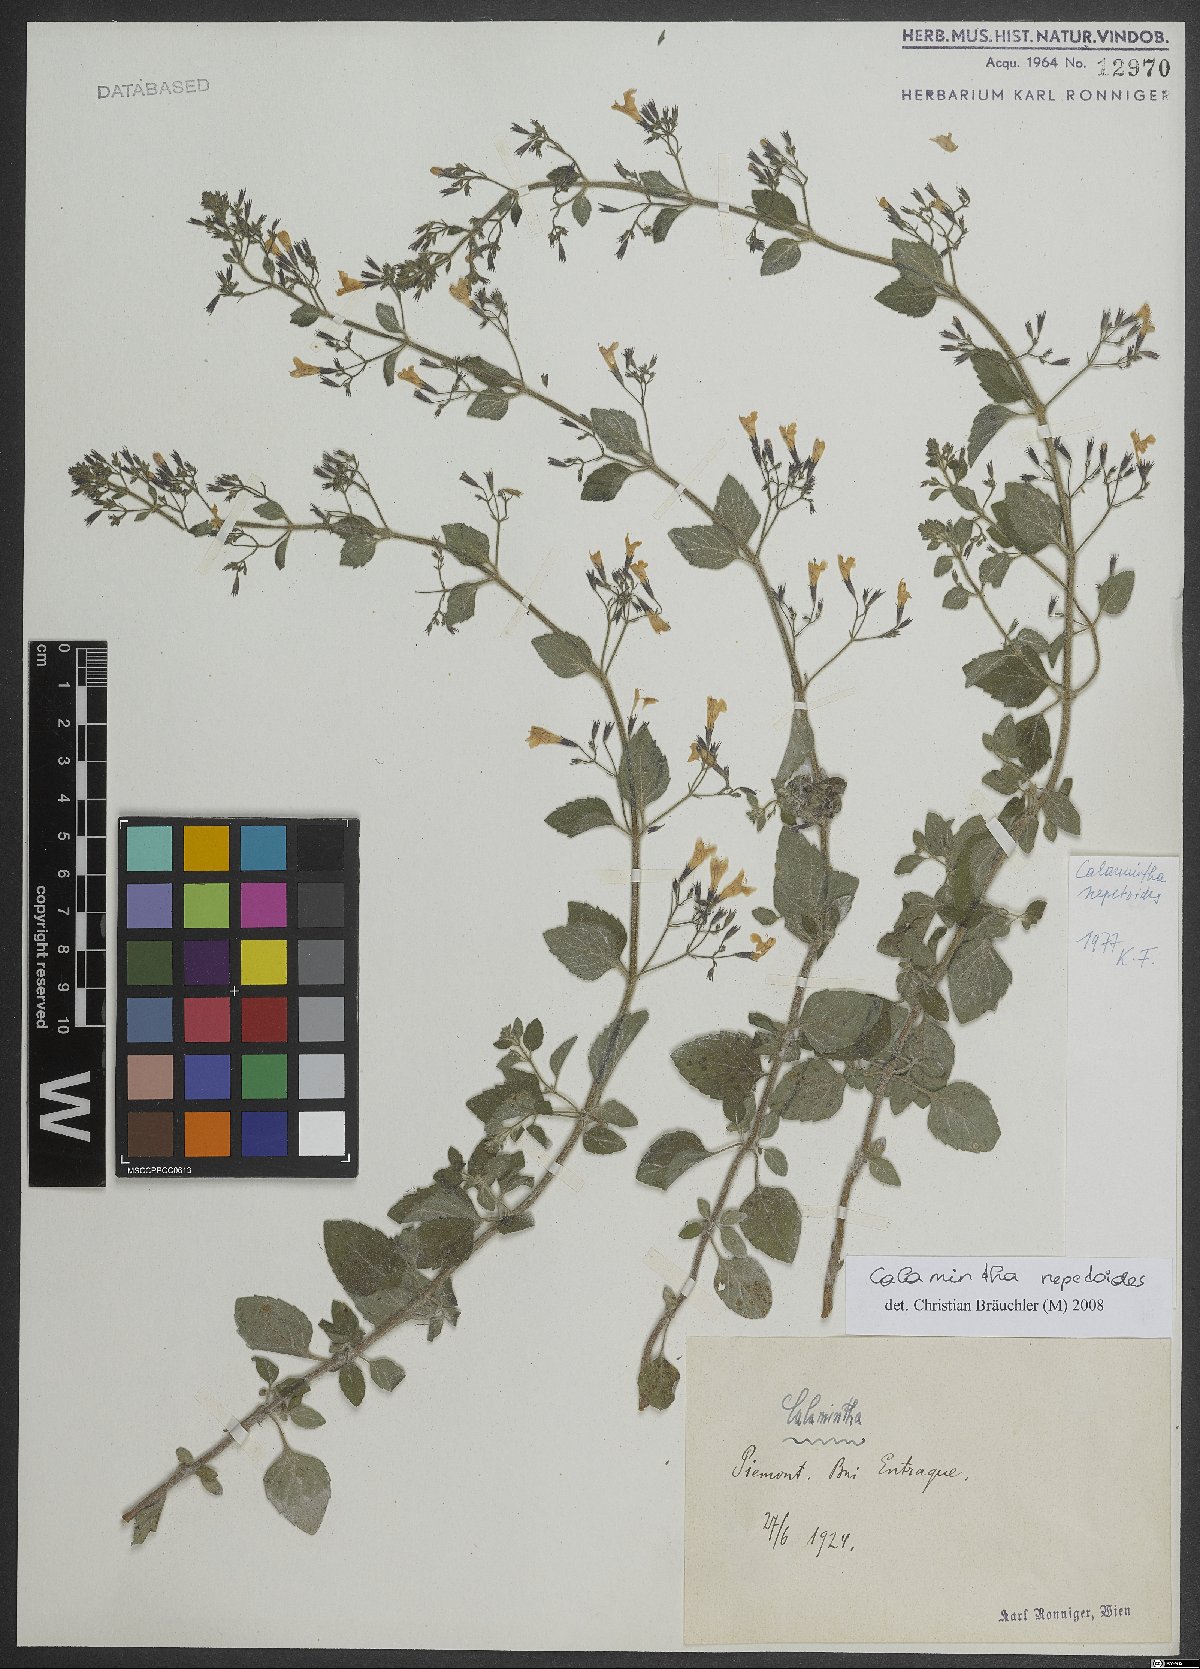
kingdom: Plantae
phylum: Tracheophyta
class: Magnoliopsida
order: Lamiales
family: Lamiaceae
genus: Clinopodium
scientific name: Clinopodium nepeta
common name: Lesser calamint
